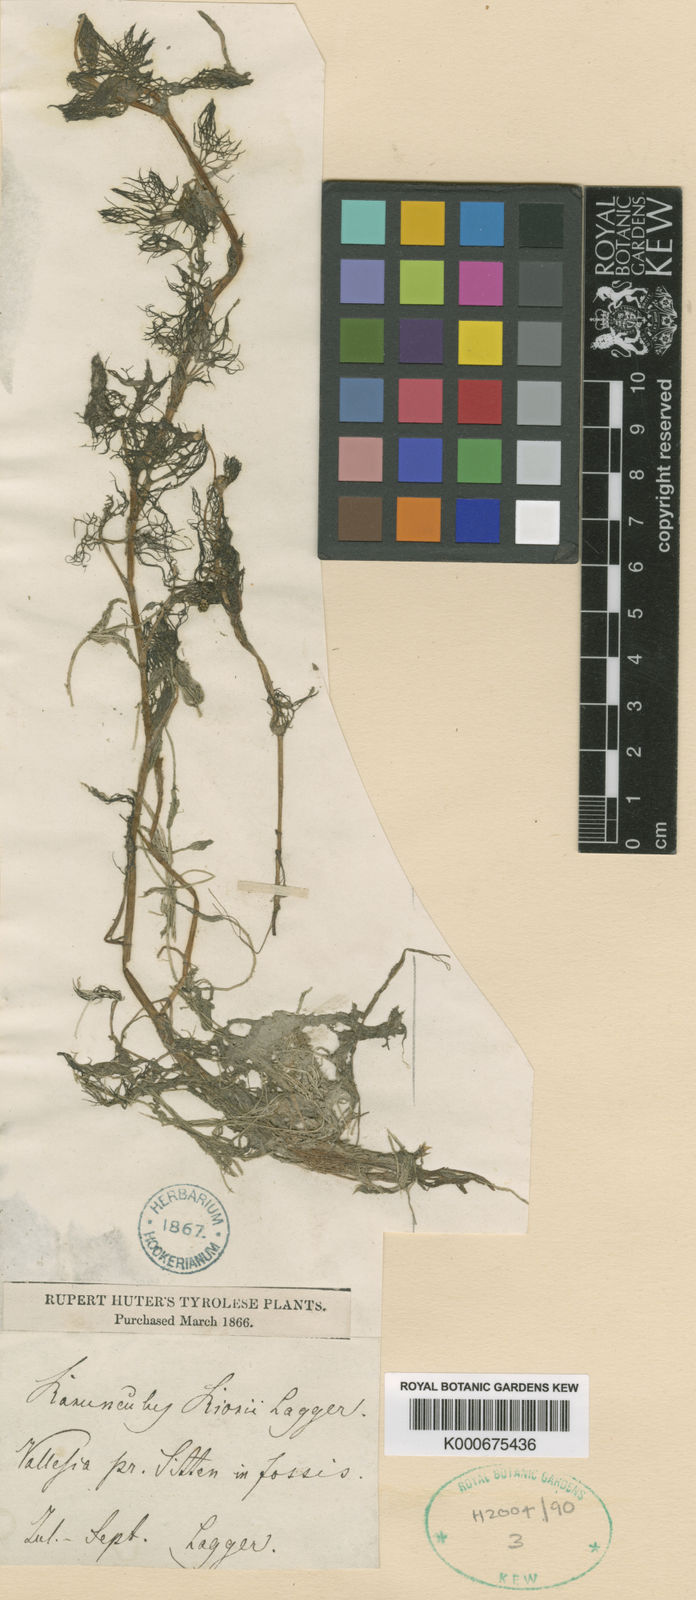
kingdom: Plantae
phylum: Tracheophyta
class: Magnoliopsida
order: Ranunculales
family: Ranunculaceae
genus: Ranunculus
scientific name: Ranunculus rionii
